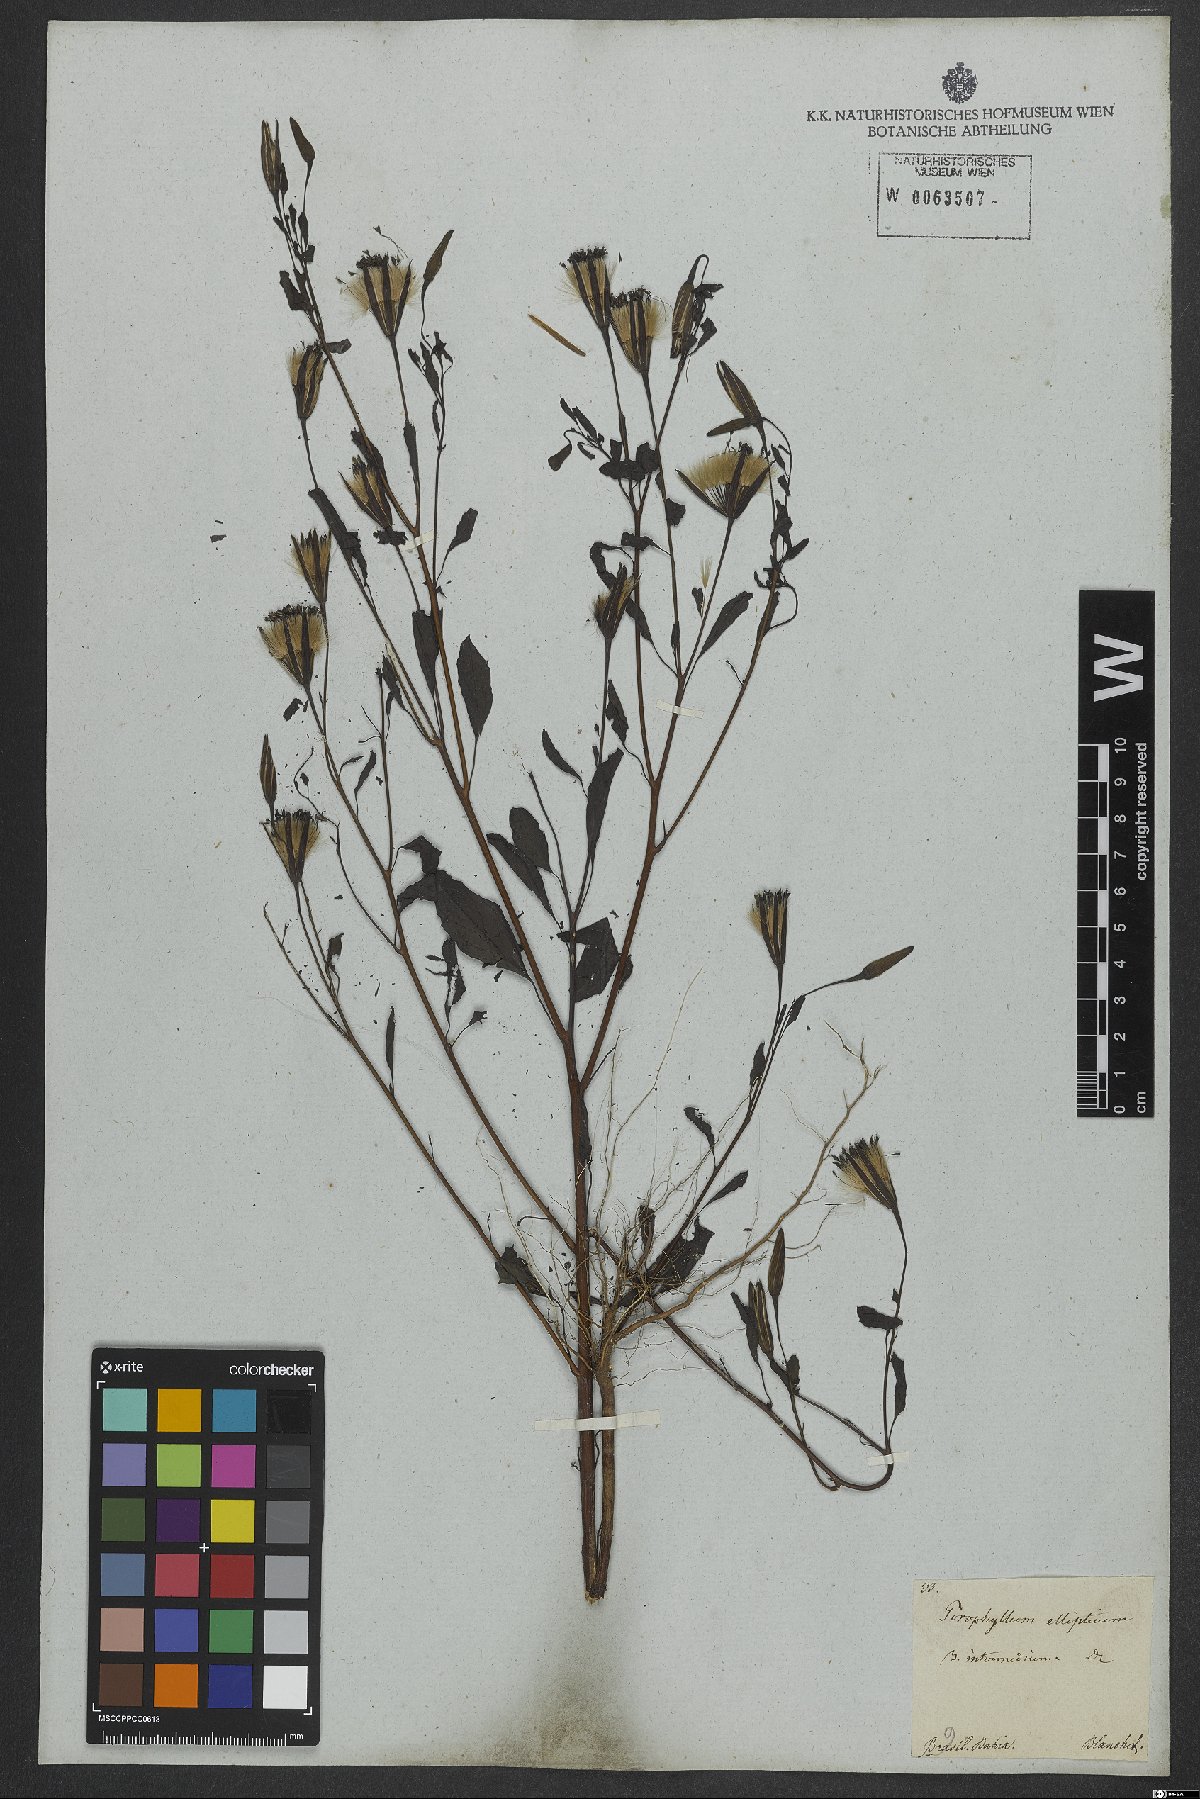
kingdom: Plantae
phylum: Tracheophyta
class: Magnoliopsida
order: Asterales
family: Asteraceae
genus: Porophyllum
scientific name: Porophyllum ruderale
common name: Yerba porosa
